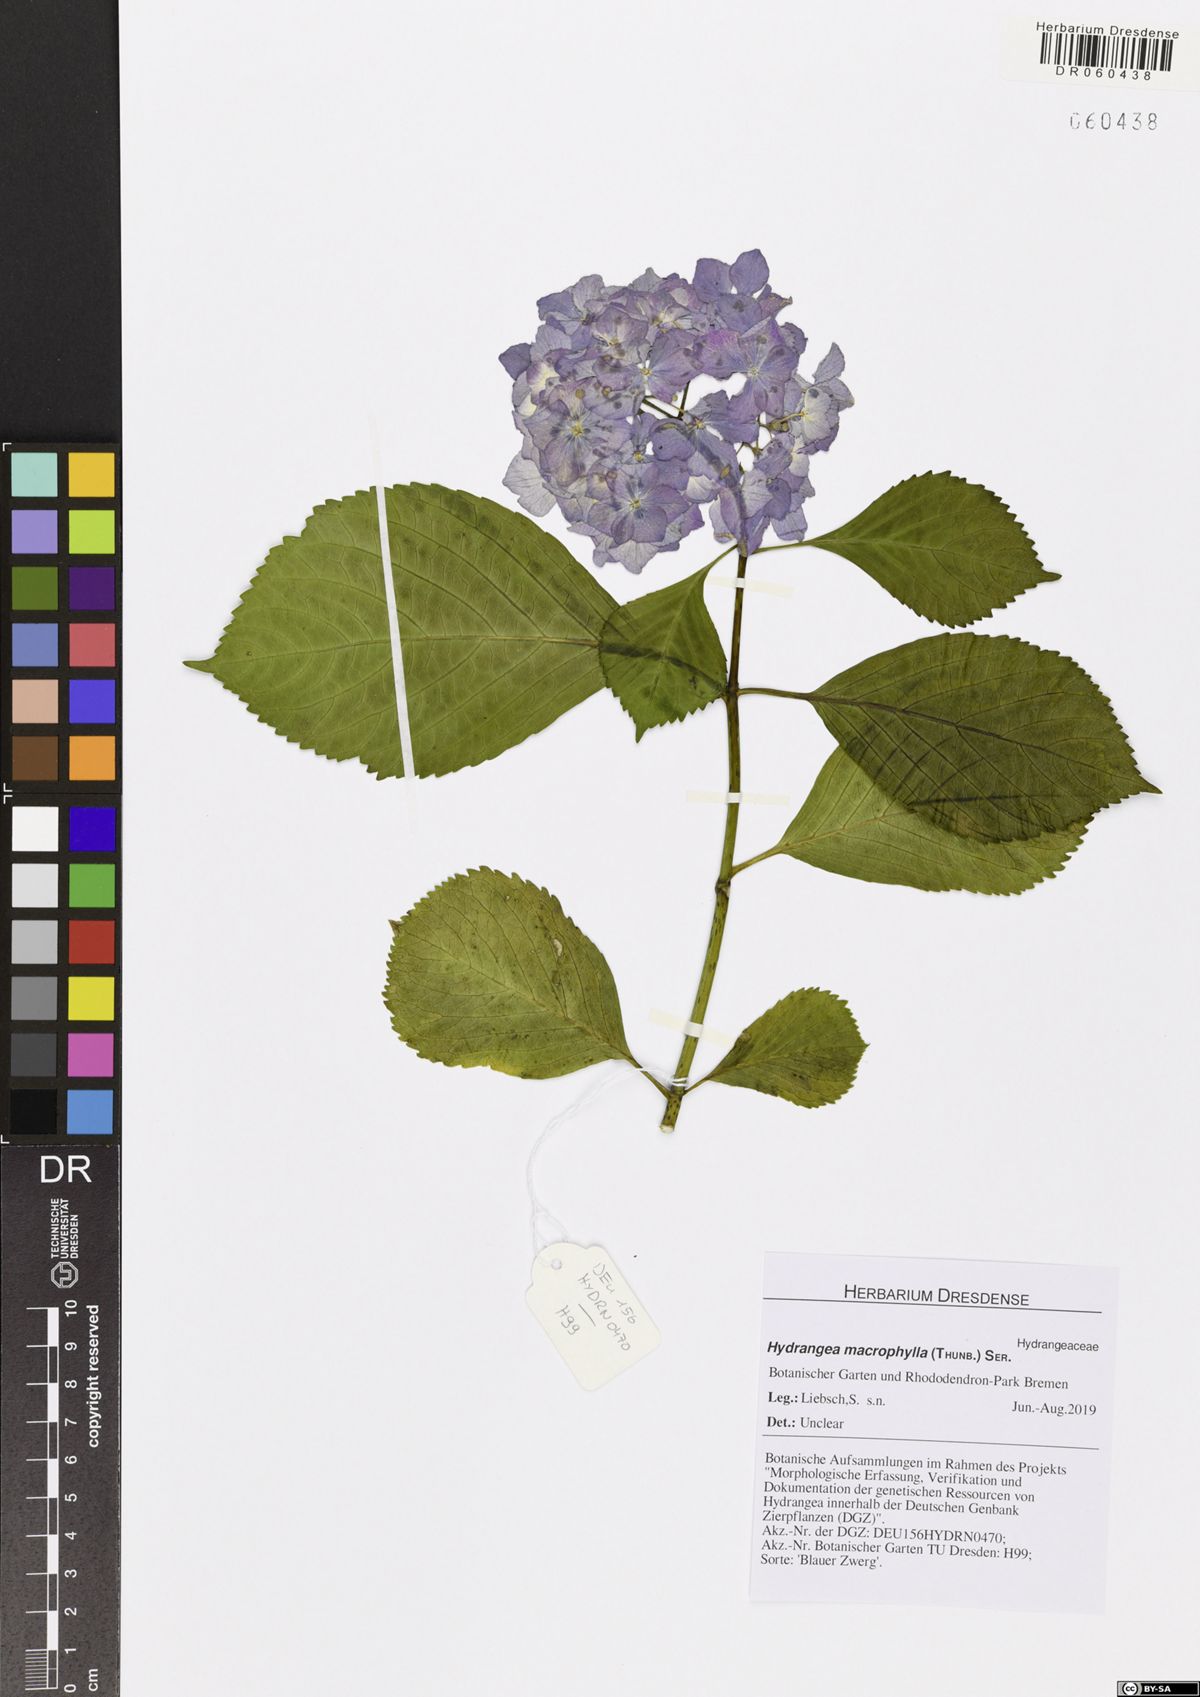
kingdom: Plantae
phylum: Tracheophyta
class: Magnoliopsida
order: Cornales
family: Hydrangeaceae
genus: Hydrangea
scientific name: Hydrangea macrophylla
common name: Hydrangea
